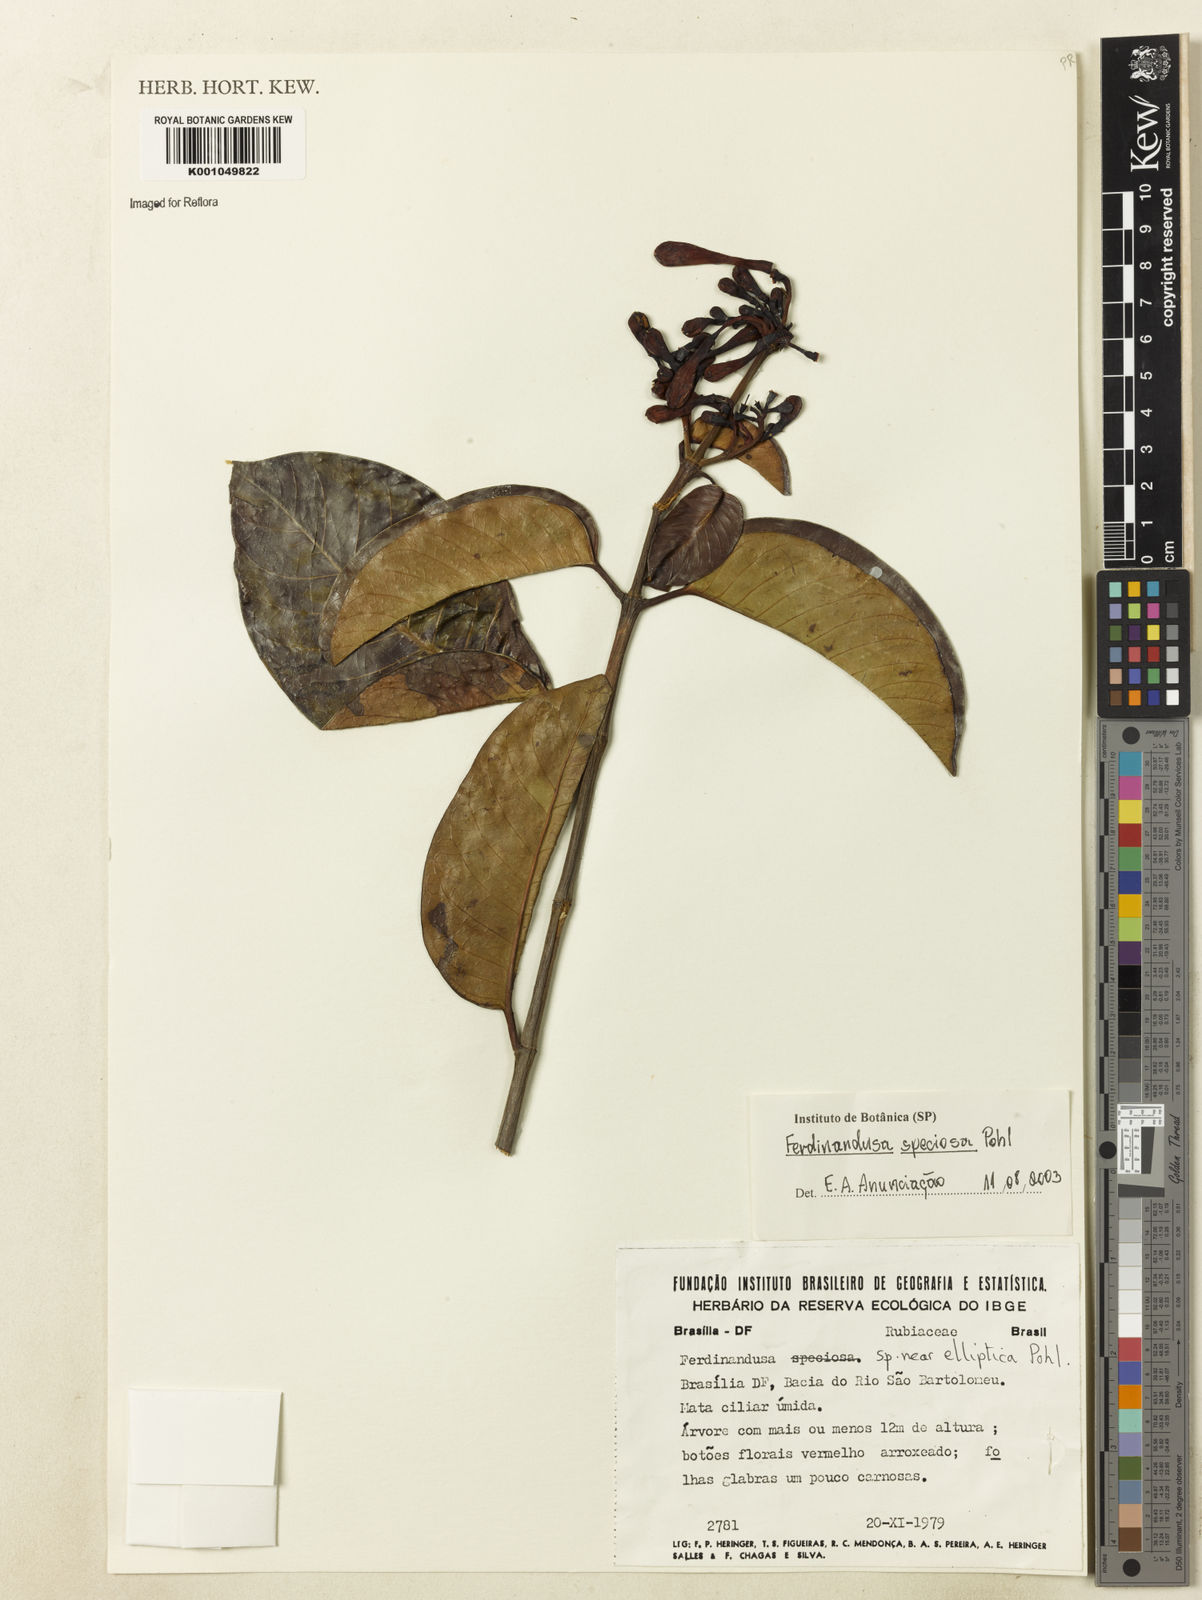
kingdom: Plantae
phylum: Tracheophyta
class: Magnoliopsida
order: Gentianales
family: Rubiaceae
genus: Ferdinandusa
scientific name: Ferdinandusa speciosa
